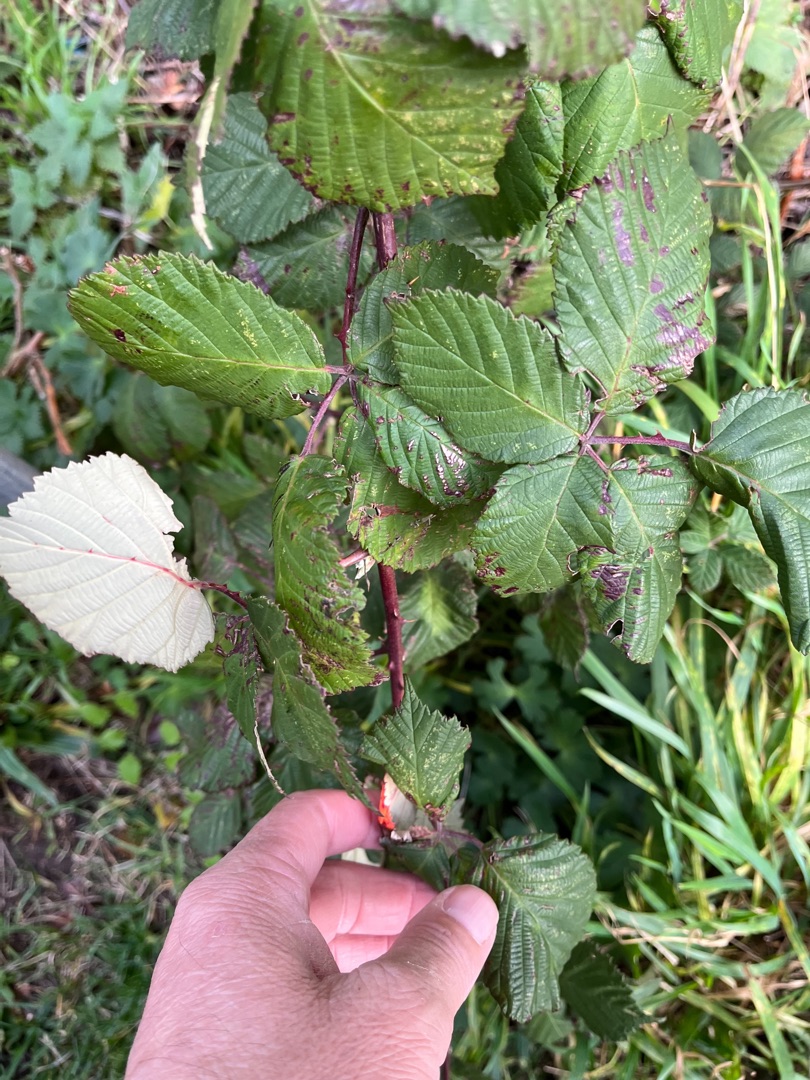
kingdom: Plantae
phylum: Tracheophyta
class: Magnoliopsida
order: Rosales
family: Rosaceae
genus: Rubus
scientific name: Rubus armeniacus
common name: Armensk brombær
